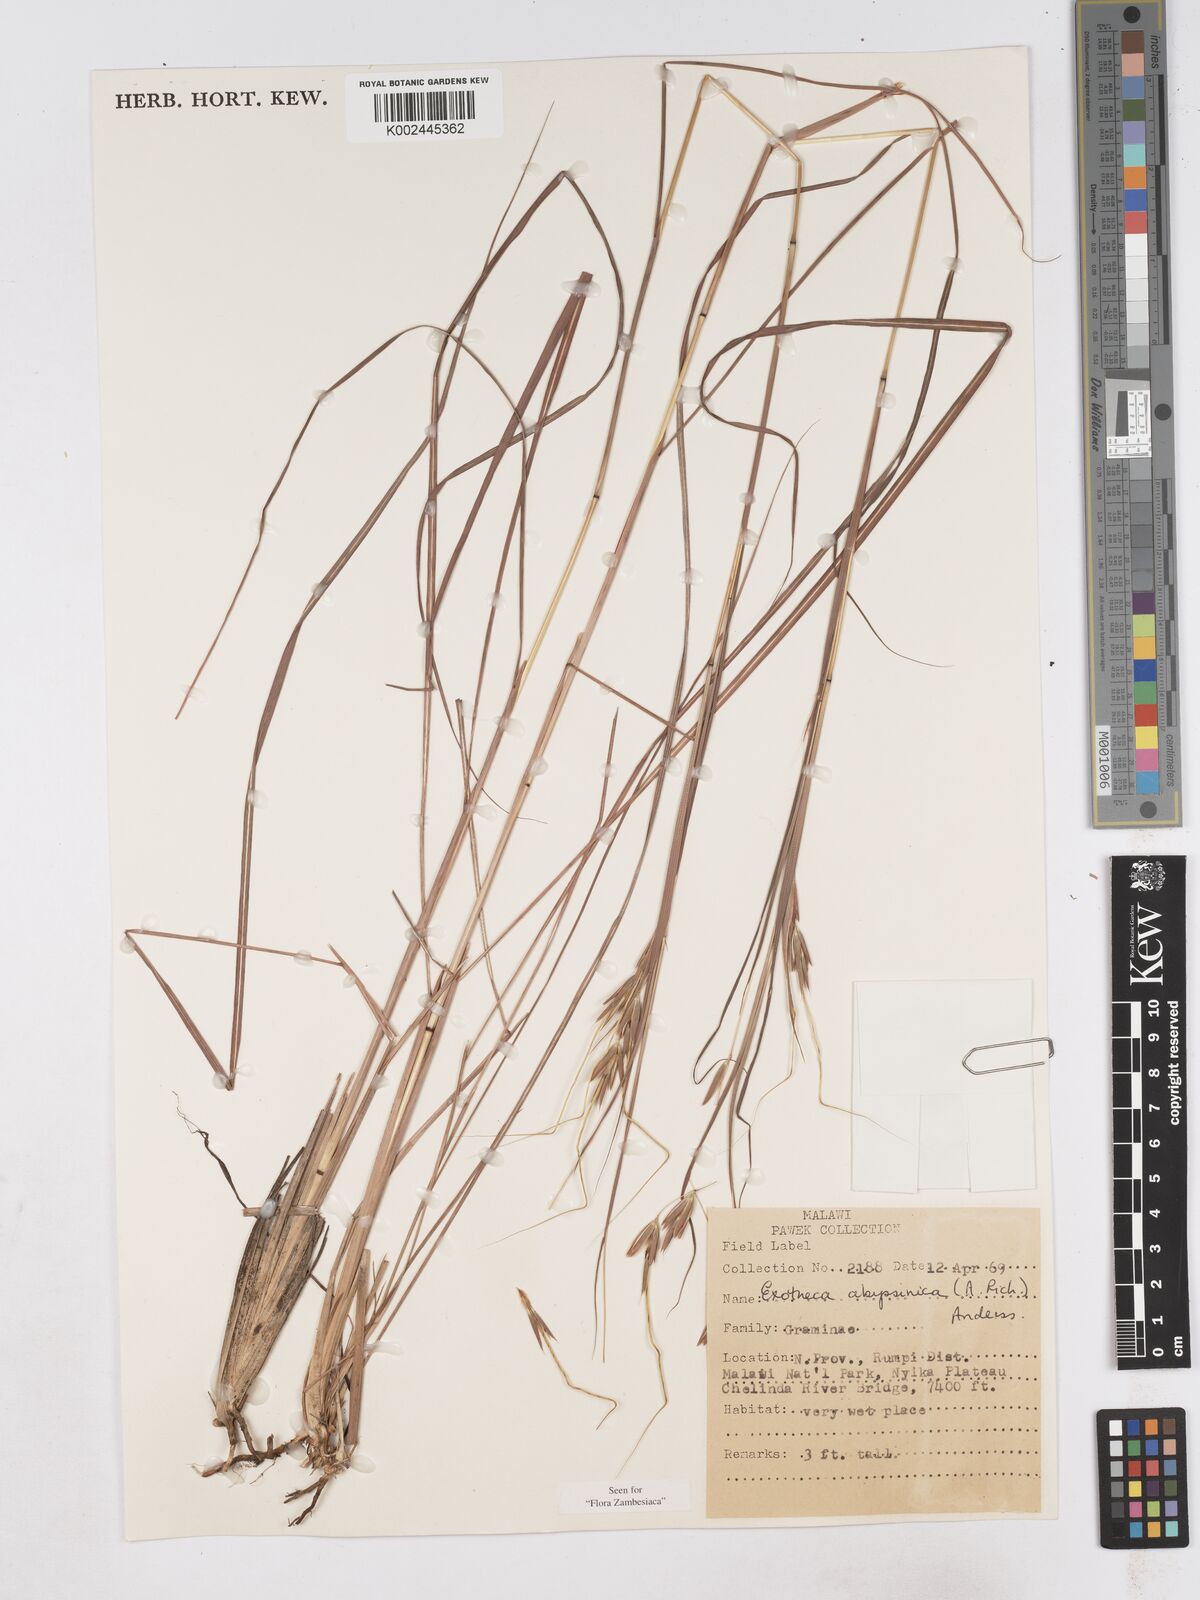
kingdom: Plantae
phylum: Tracheophyta
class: Liliopsida
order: Poales
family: Poaceae
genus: Exotheca
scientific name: Exotheca abyssinica
